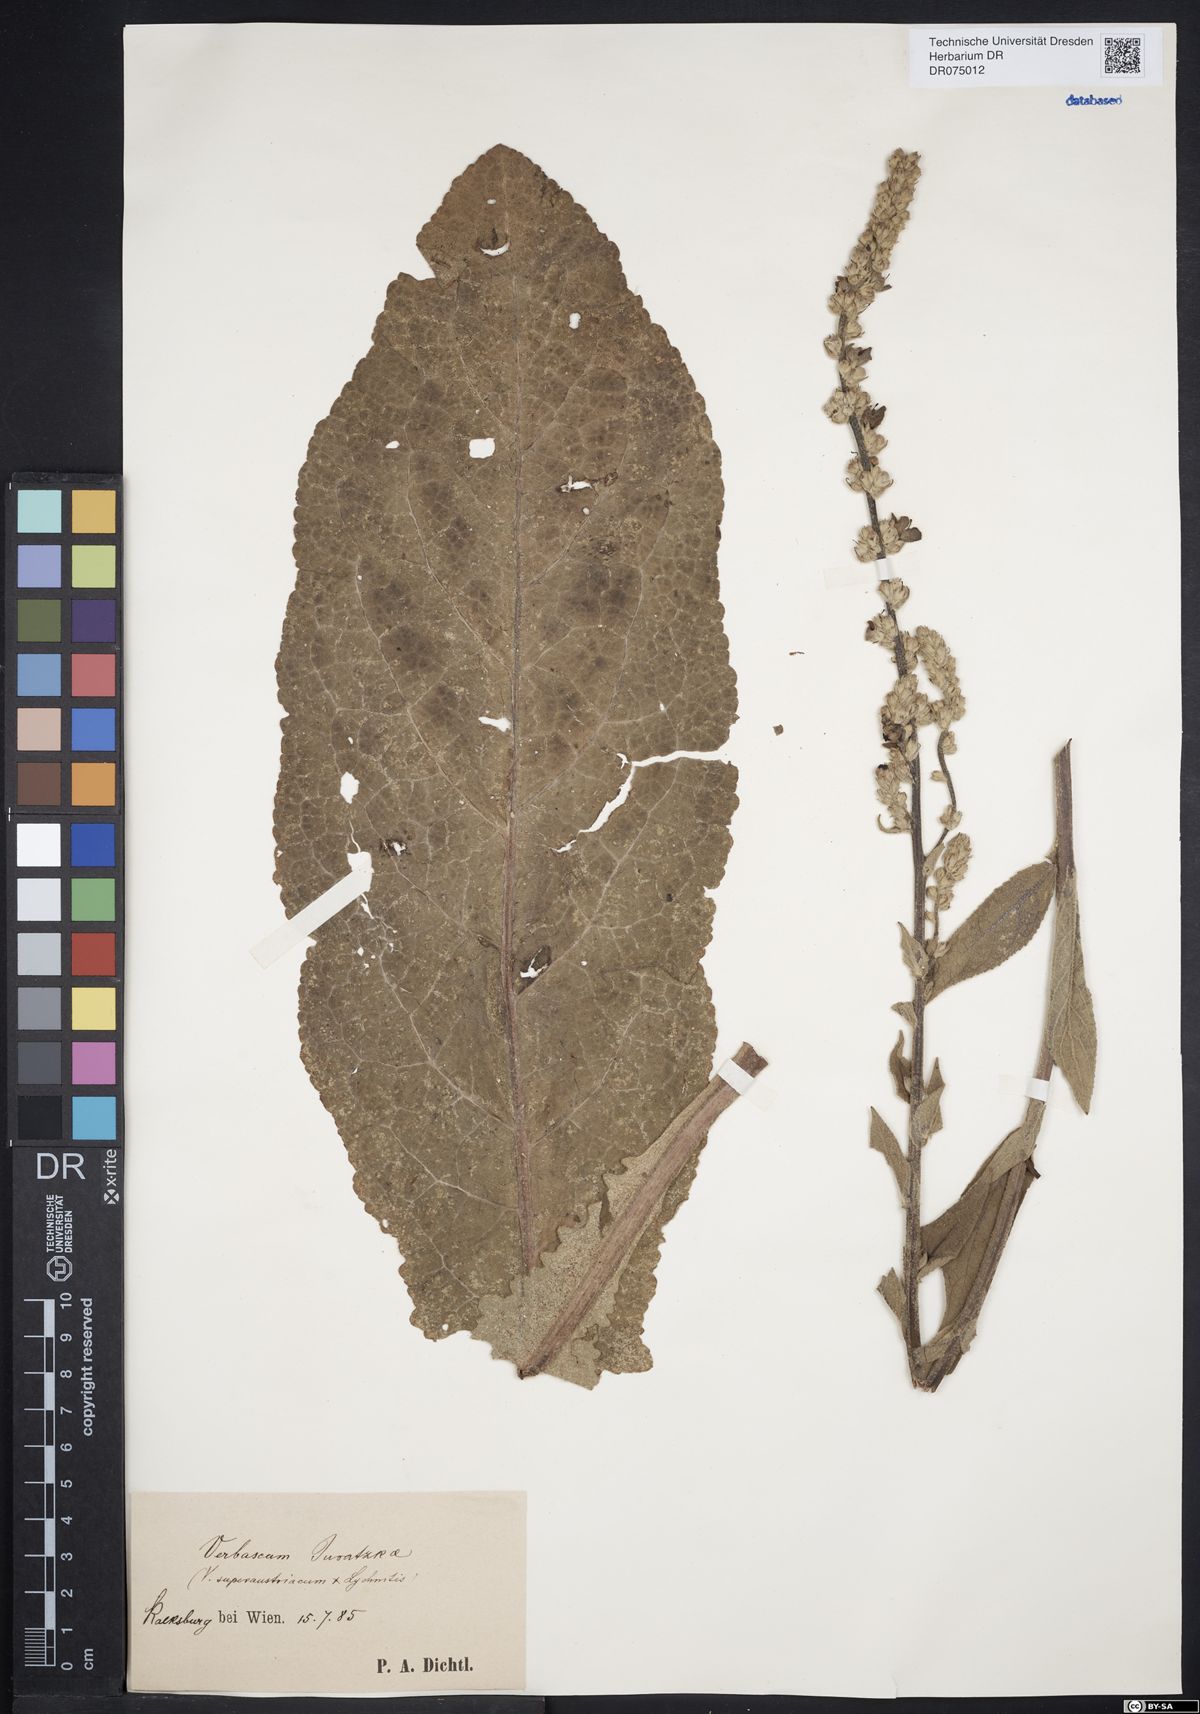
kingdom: Plantae
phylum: Tracheophyta
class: Magnoliopsida
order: Lamiales
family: Scrophulariaceae
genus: Verbascum
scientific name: Verbascum freynianum
